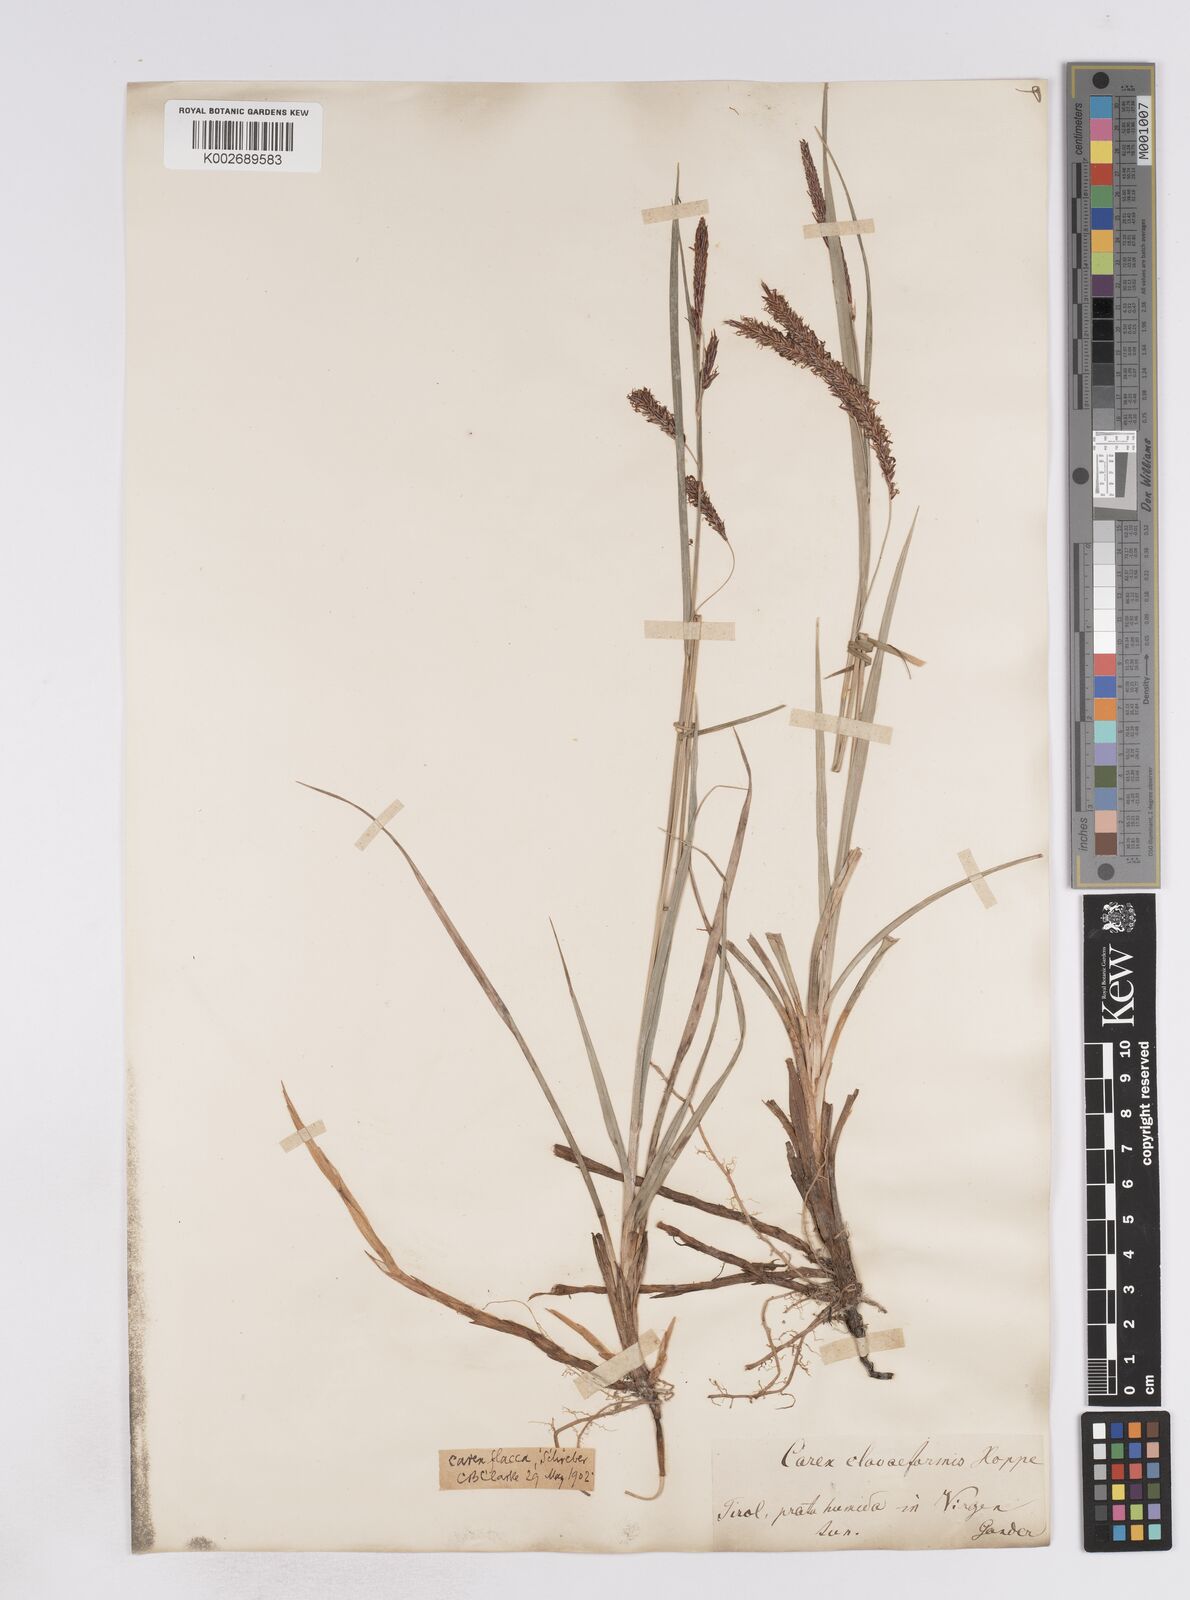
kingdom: Plantae
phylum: Tracheophyta
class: Liliopsida
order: Poales
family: Cyperaceae
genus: Carex
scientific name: Carex flacca
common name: Glaucous sedge
